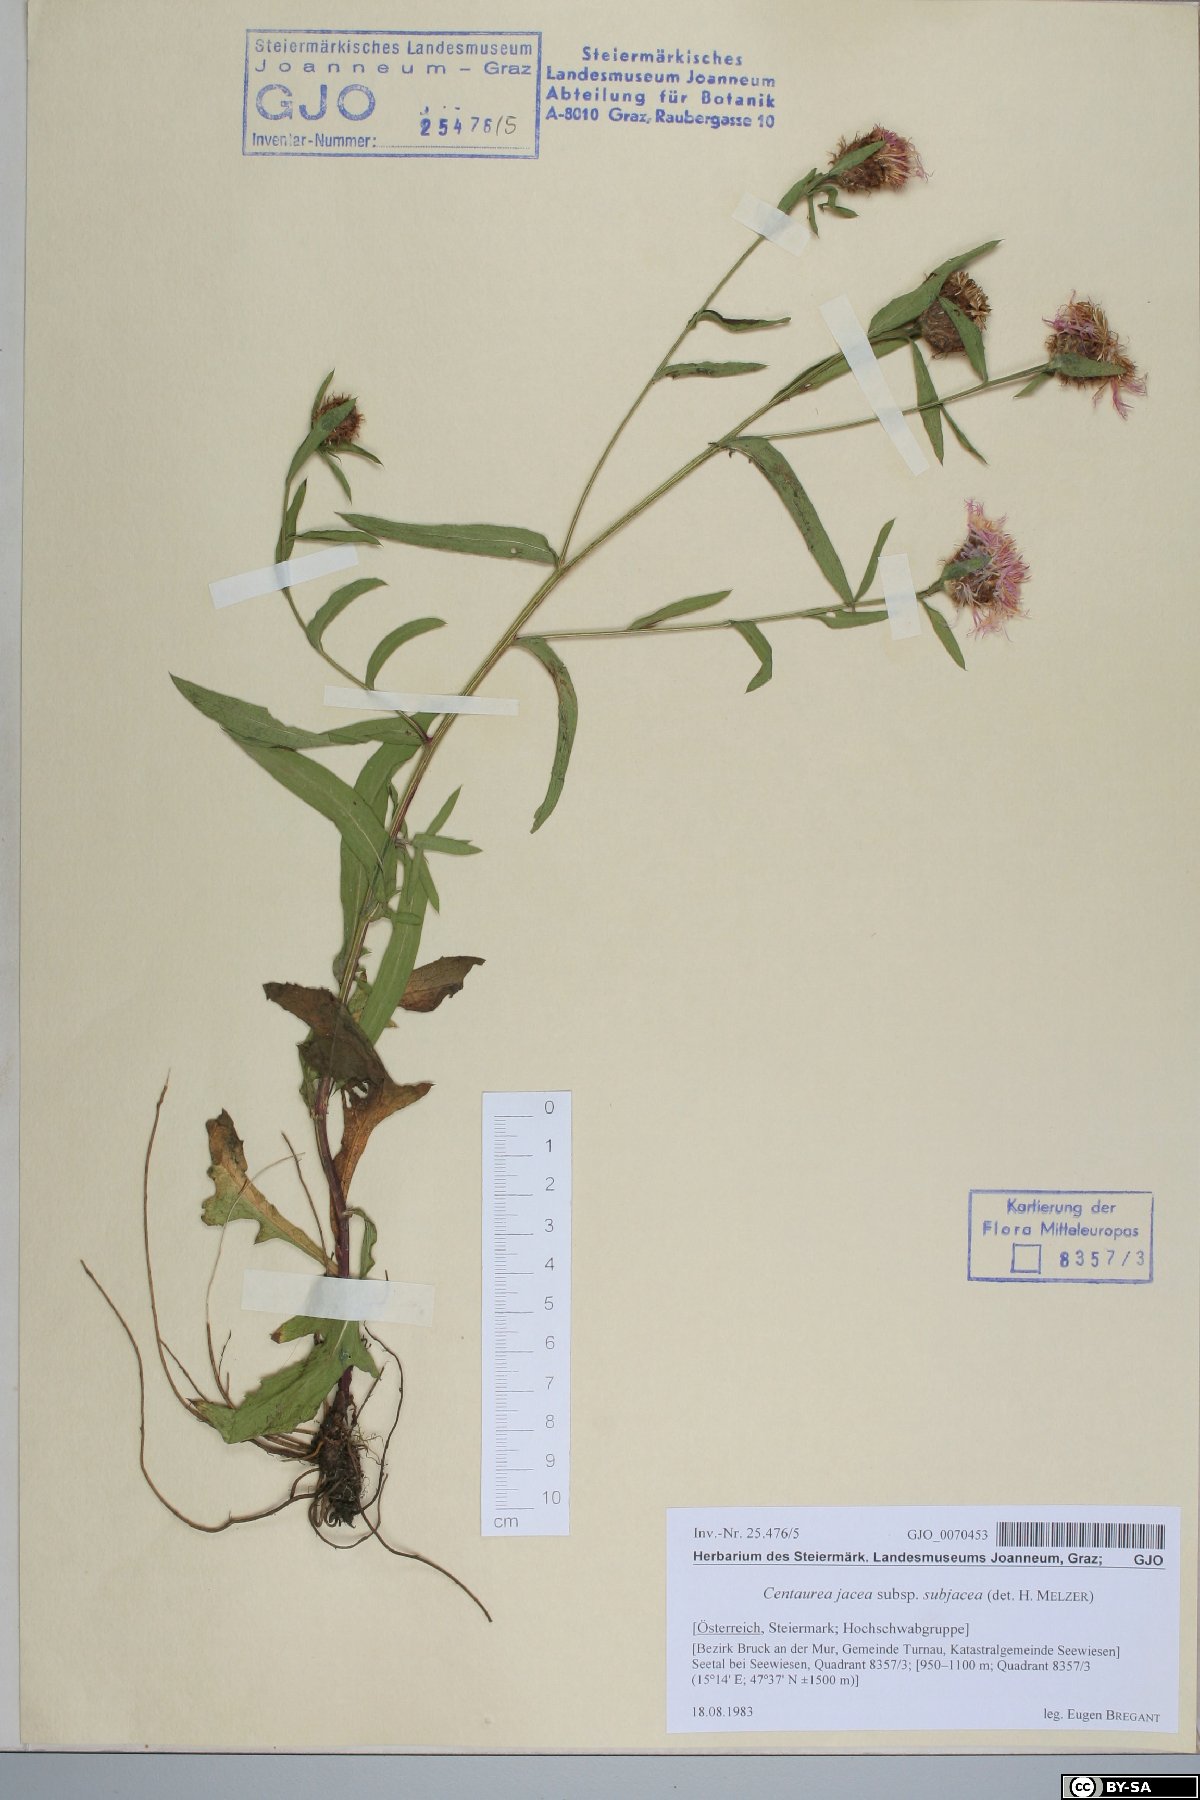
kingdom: Plantae
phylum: Tracheophyta
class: Magnoliopsida
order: Asterales
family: Asteraceae
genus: Centaurea
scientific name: Centaurea preissmannii
